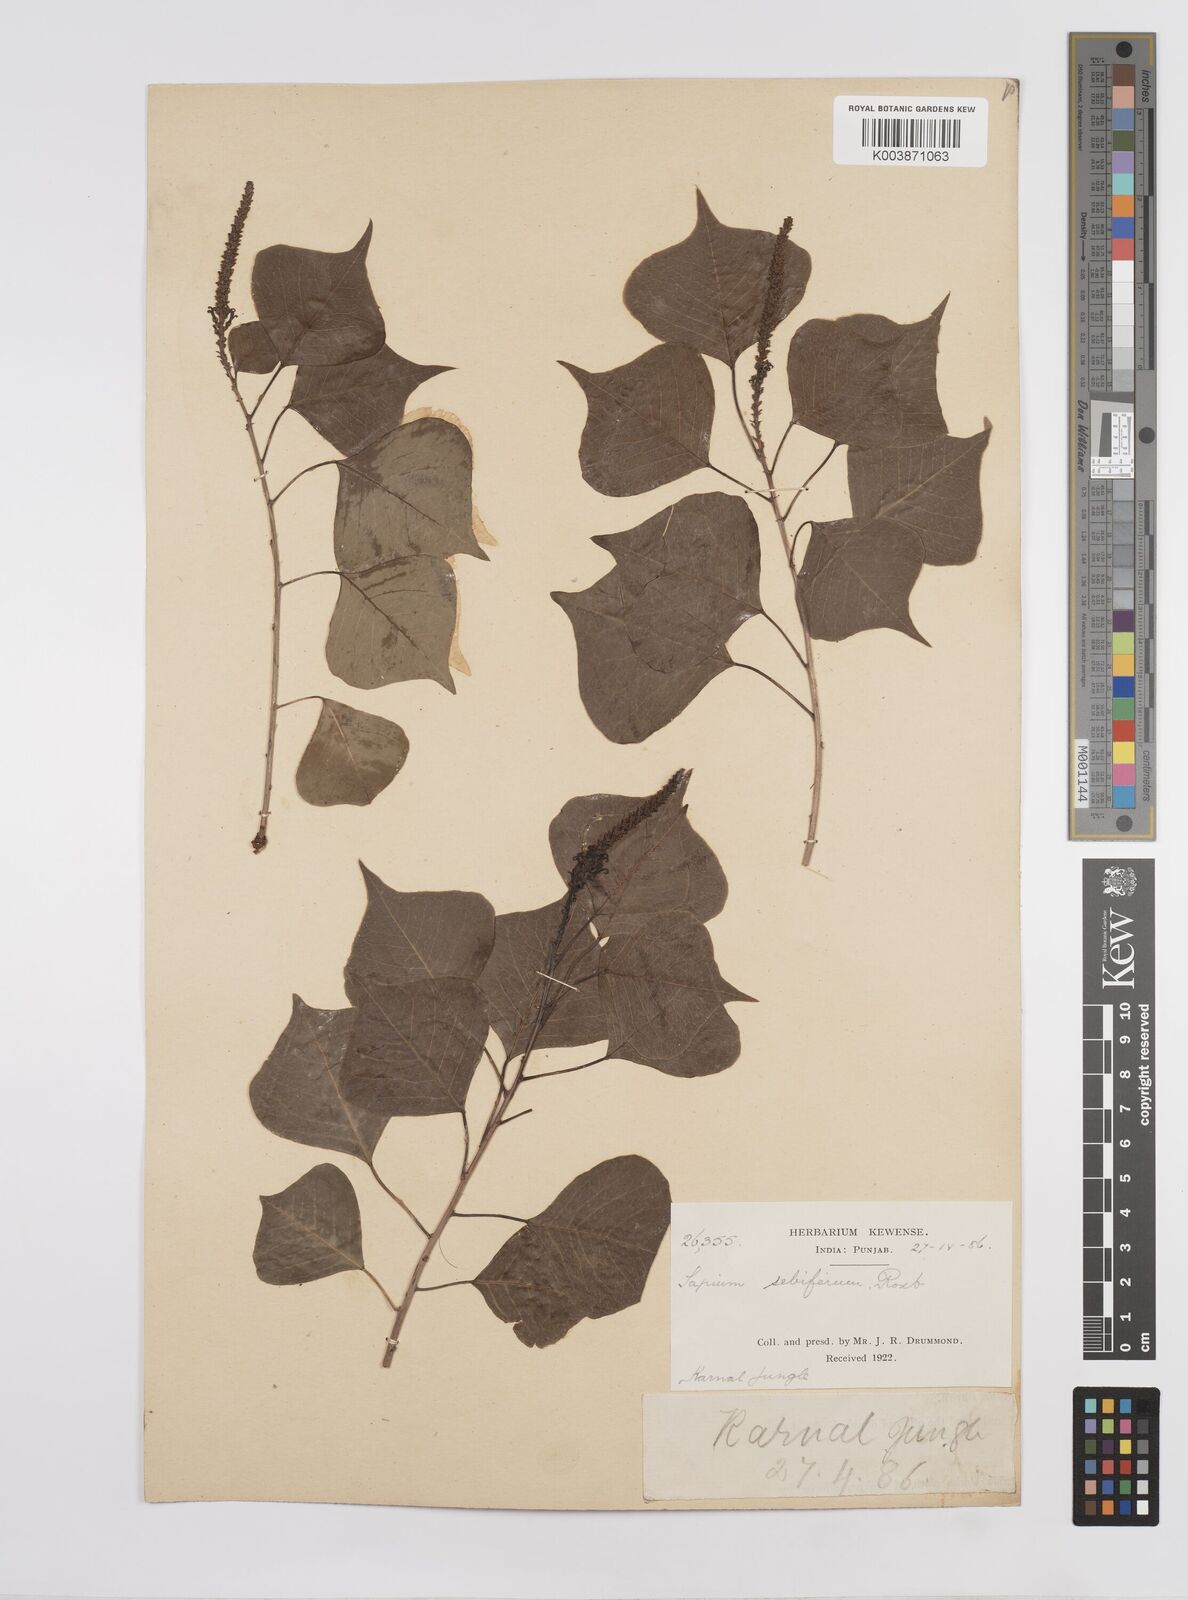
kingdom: Plantae
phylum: Tracheophyta
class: Magnoliopsida
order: Malpighiales
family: Euphorbiaceae
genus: Triadica
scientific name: Triadica sebifera
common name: Chinese tallow
